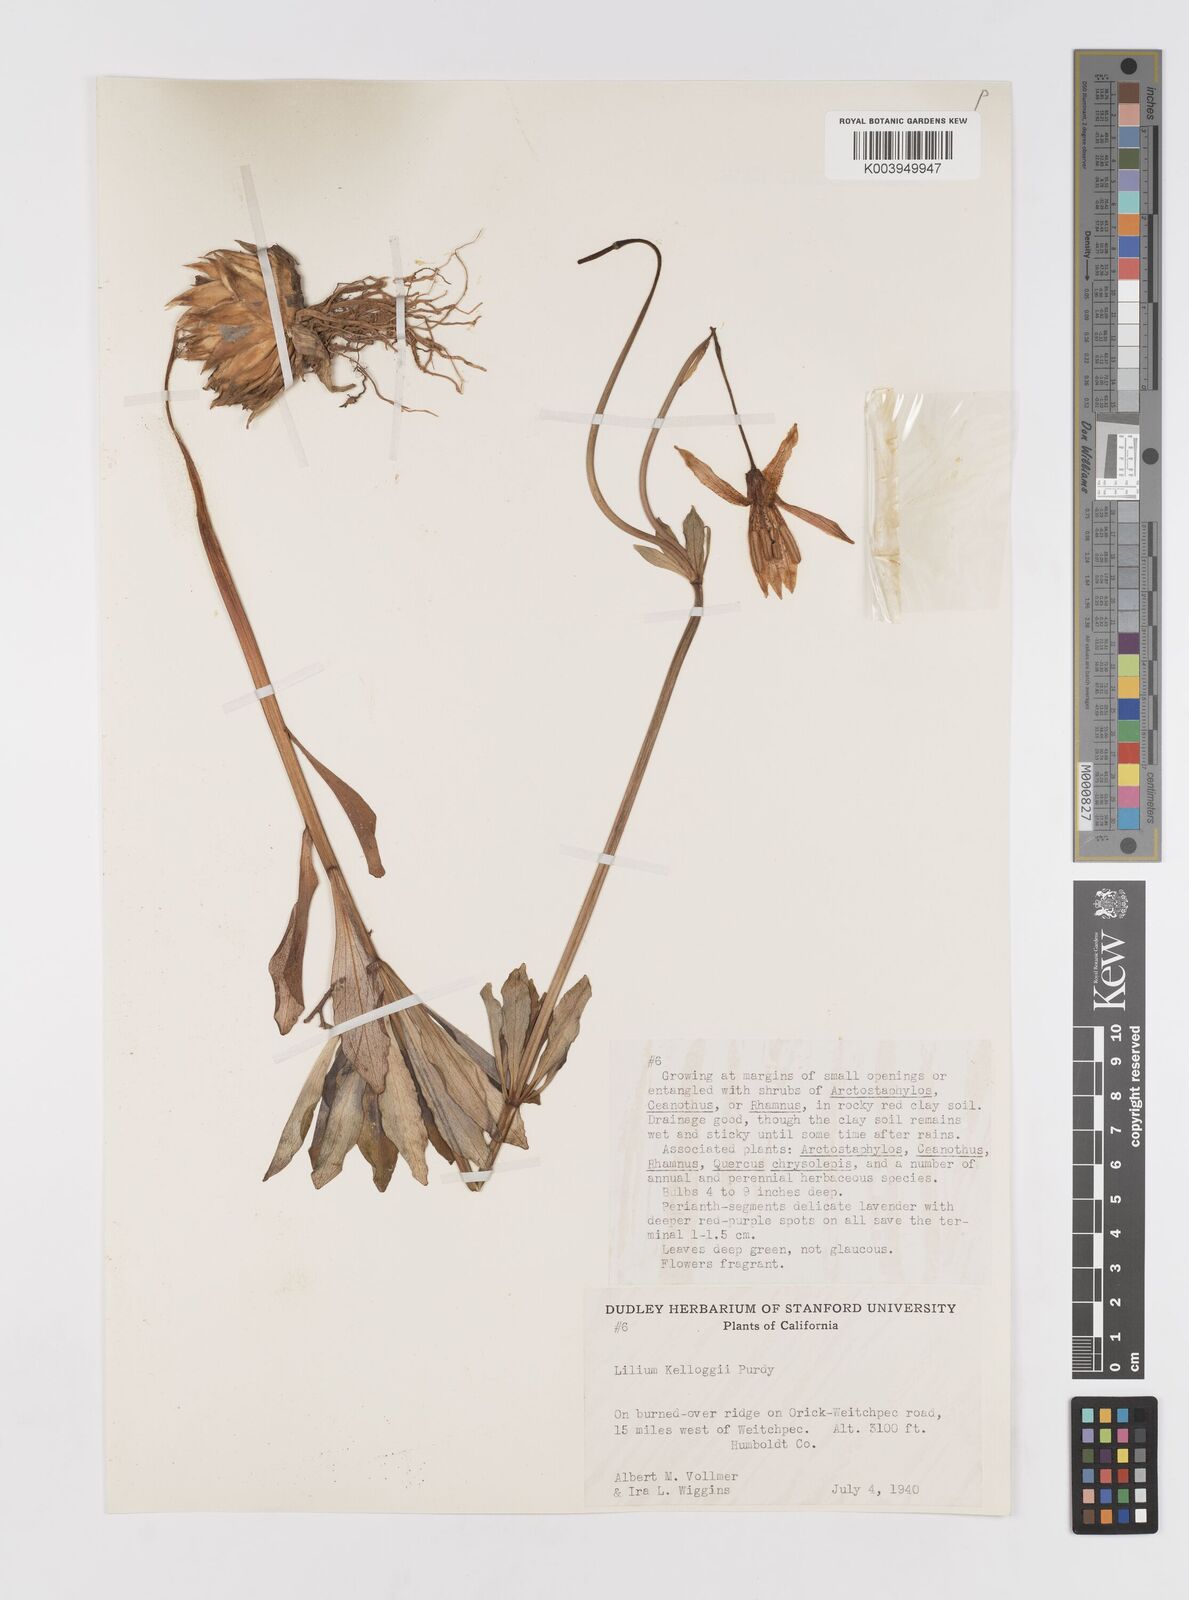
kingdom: Plantae
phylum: Tracheophyta
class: Liliopsida
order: Liliales
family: Liliaceae
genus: Lilium
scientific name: Lilium kelloggii
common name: Kellogg's lily
